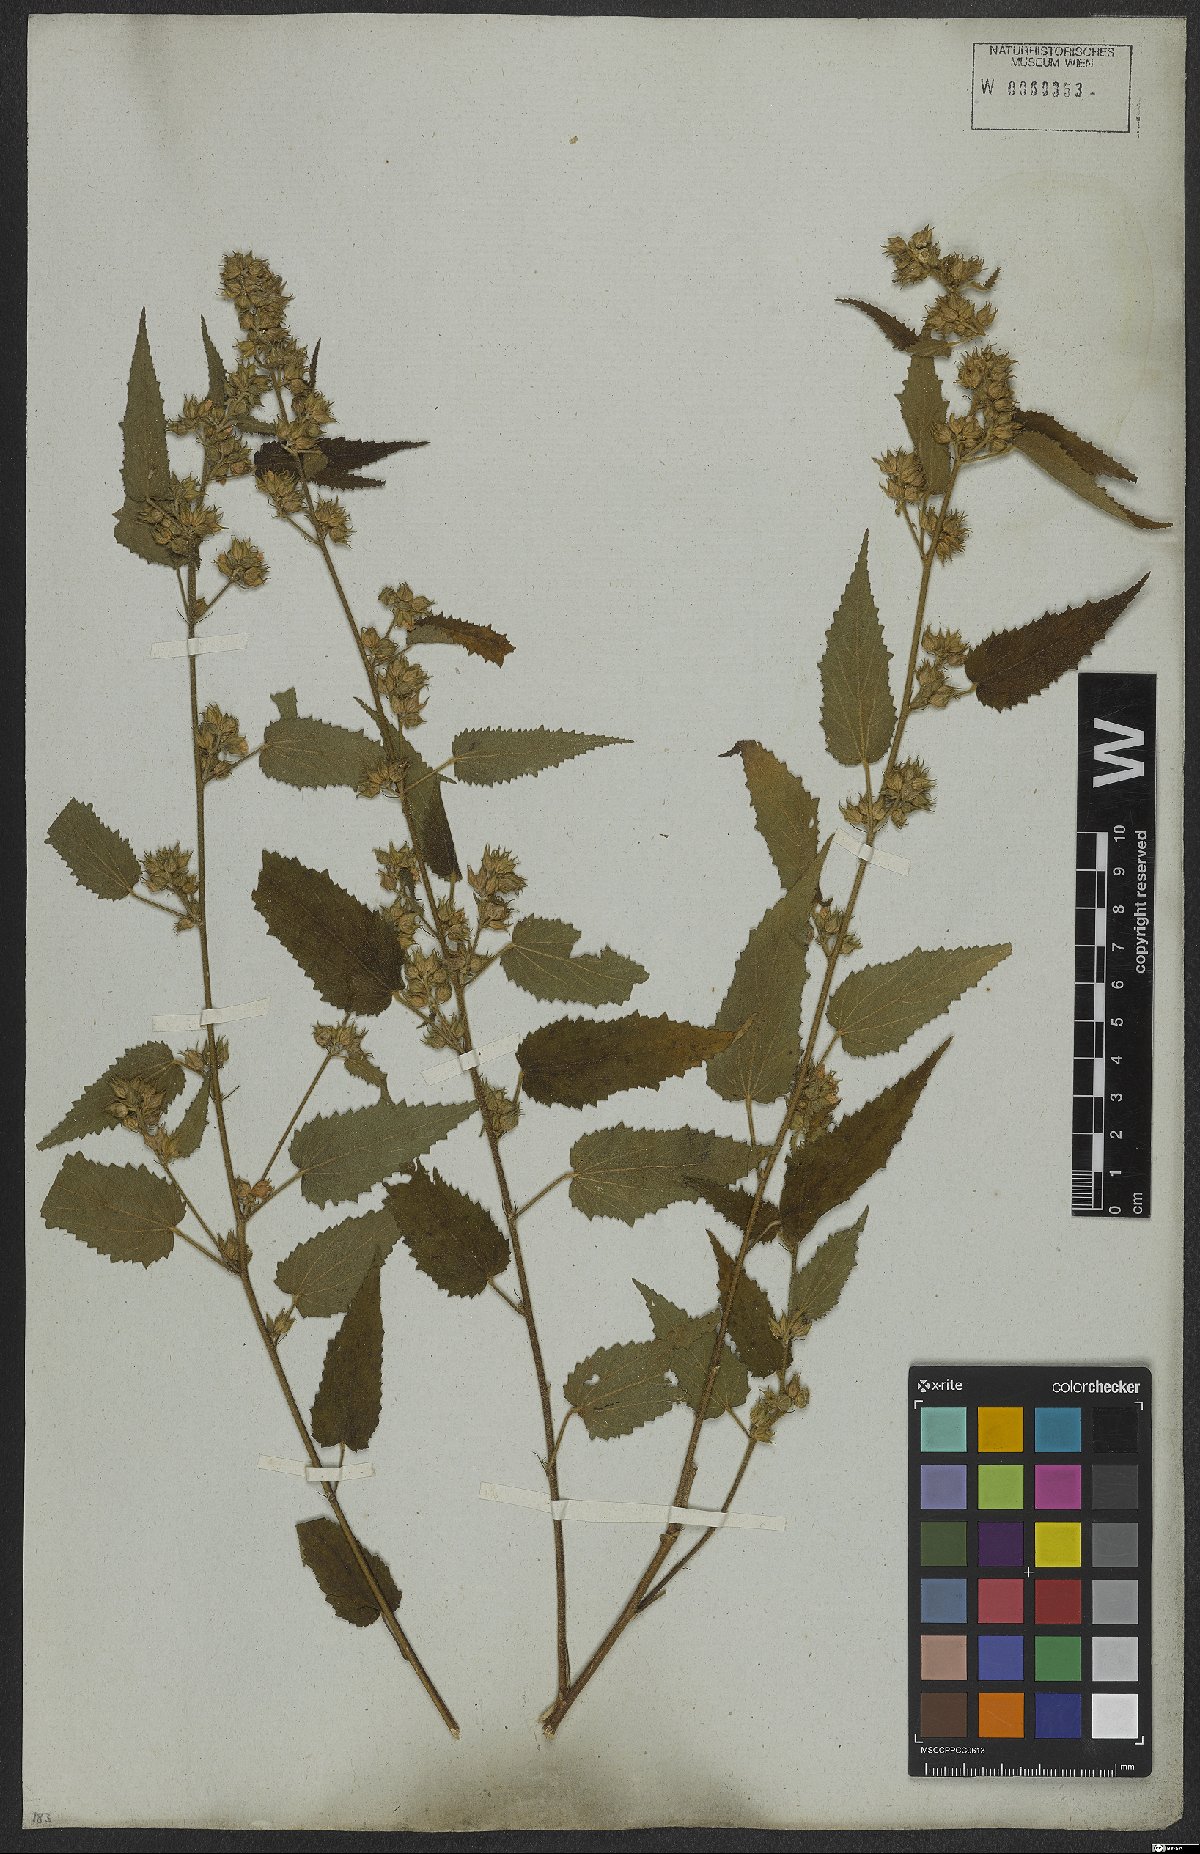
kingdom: Plantae
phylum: Tracheophyta
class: Magnoliopsida
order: Malvales
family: Malvaceae
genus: Sida
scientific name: Sida caudata
